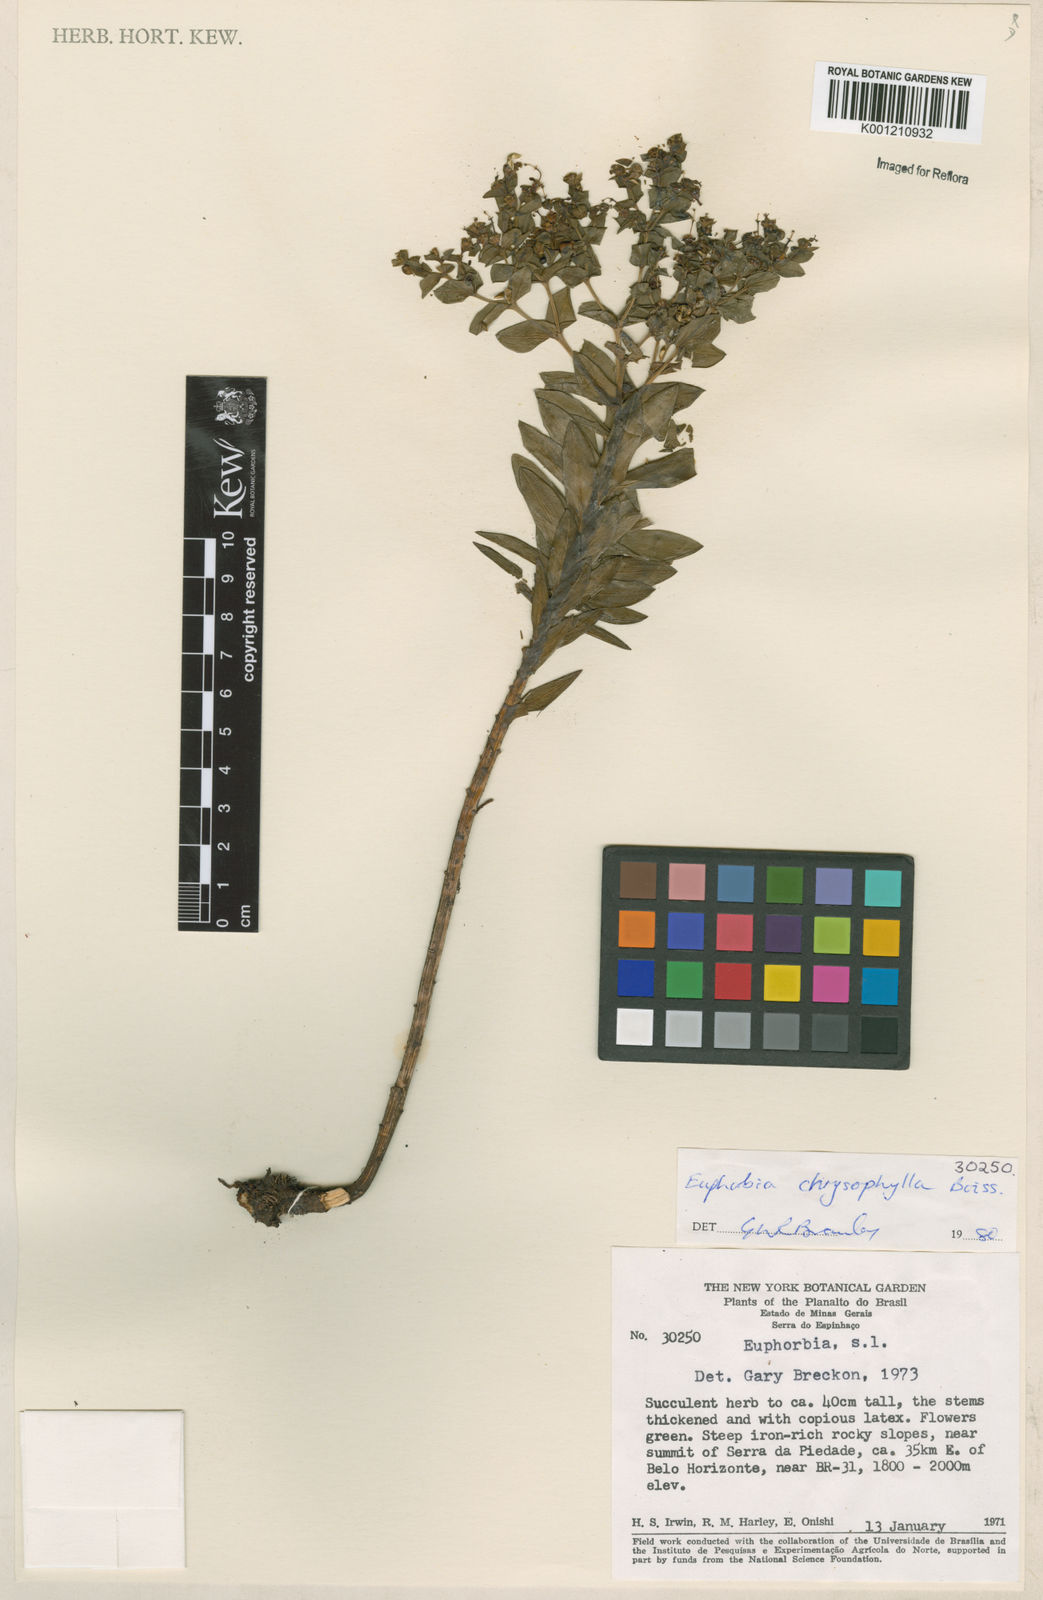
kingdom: Plantae
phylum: Tracheophyta
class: Magnoliopsida
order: Malpighiales
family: Euphorbiaceae
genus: Euphorbia
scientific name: Euphorbia chrysophylla
